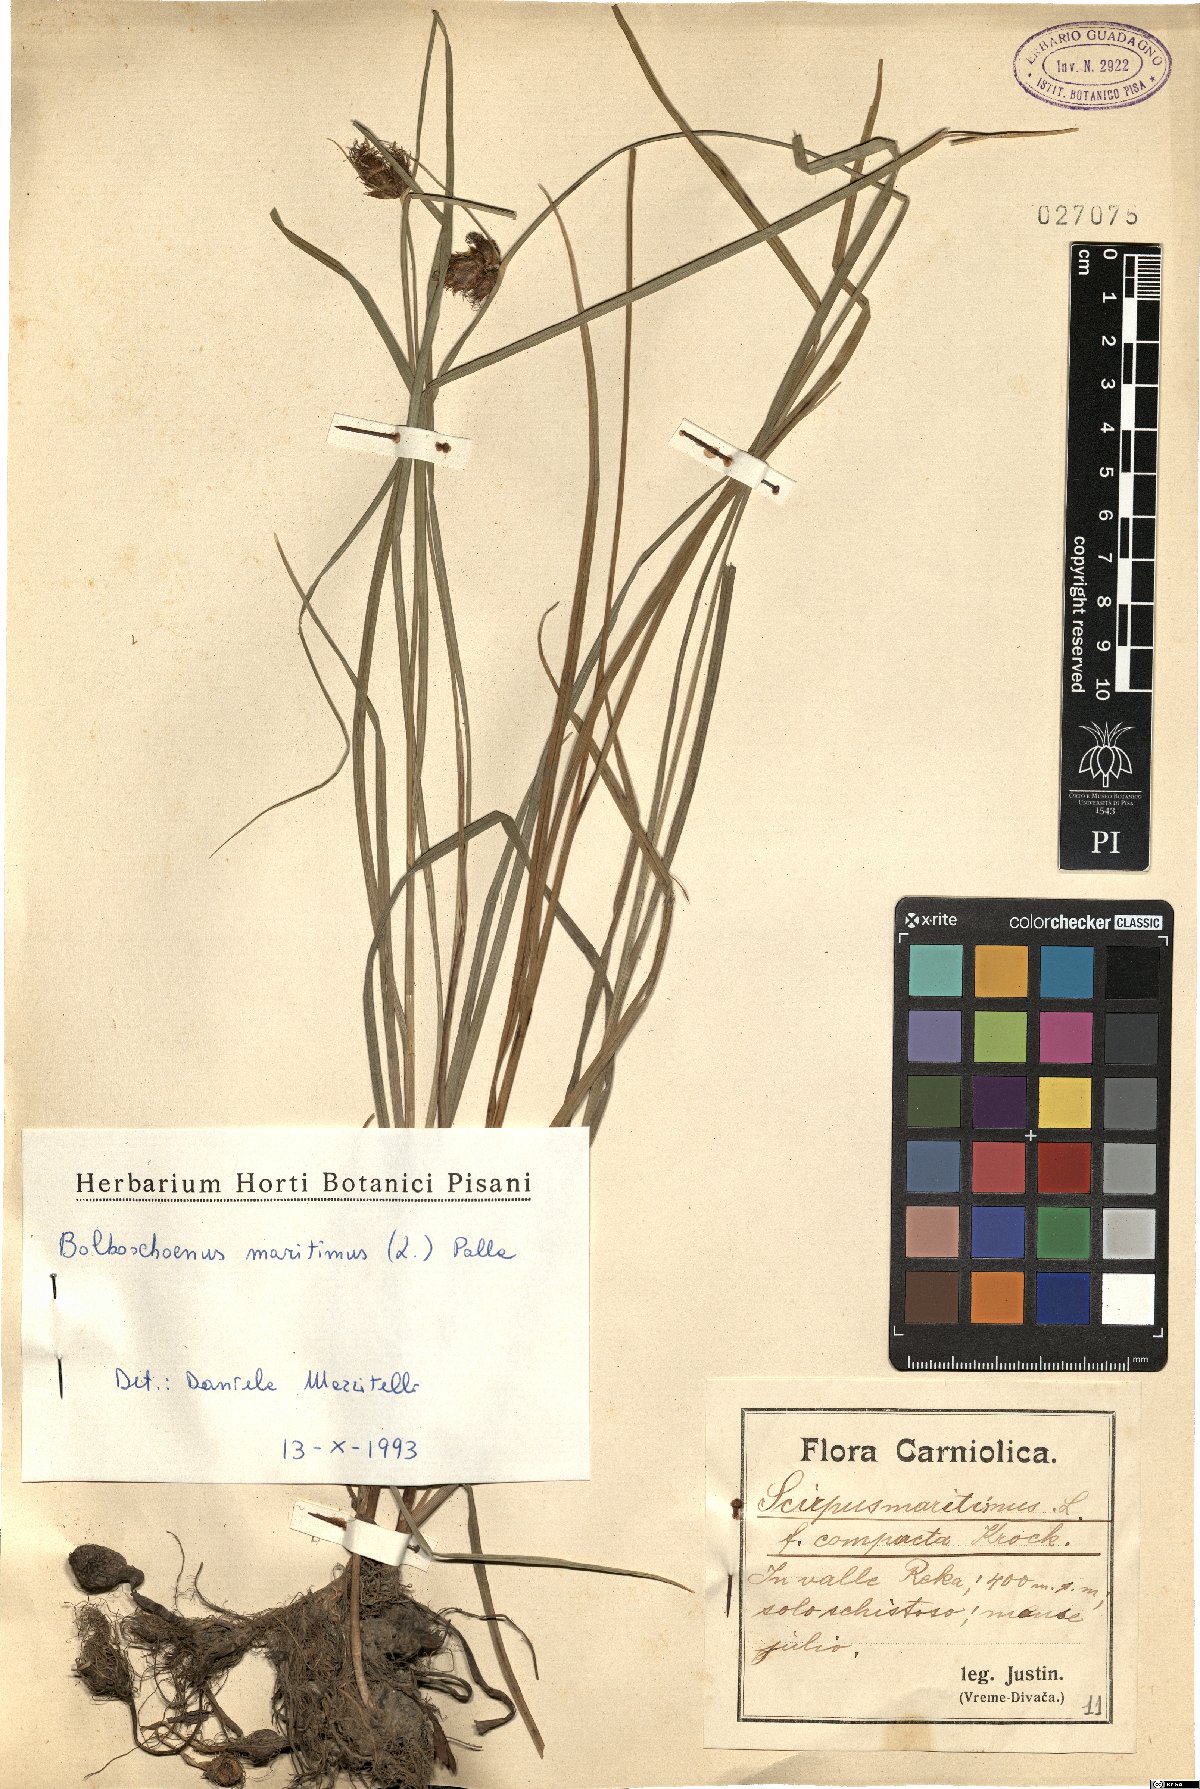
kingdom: Plantae
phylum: Tracheophyta
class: Liliopsida
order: Poales
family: Cyperaceae
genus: Bolboschoenus
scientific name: Bolboschoenus maritimus
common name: Sea club-rush
